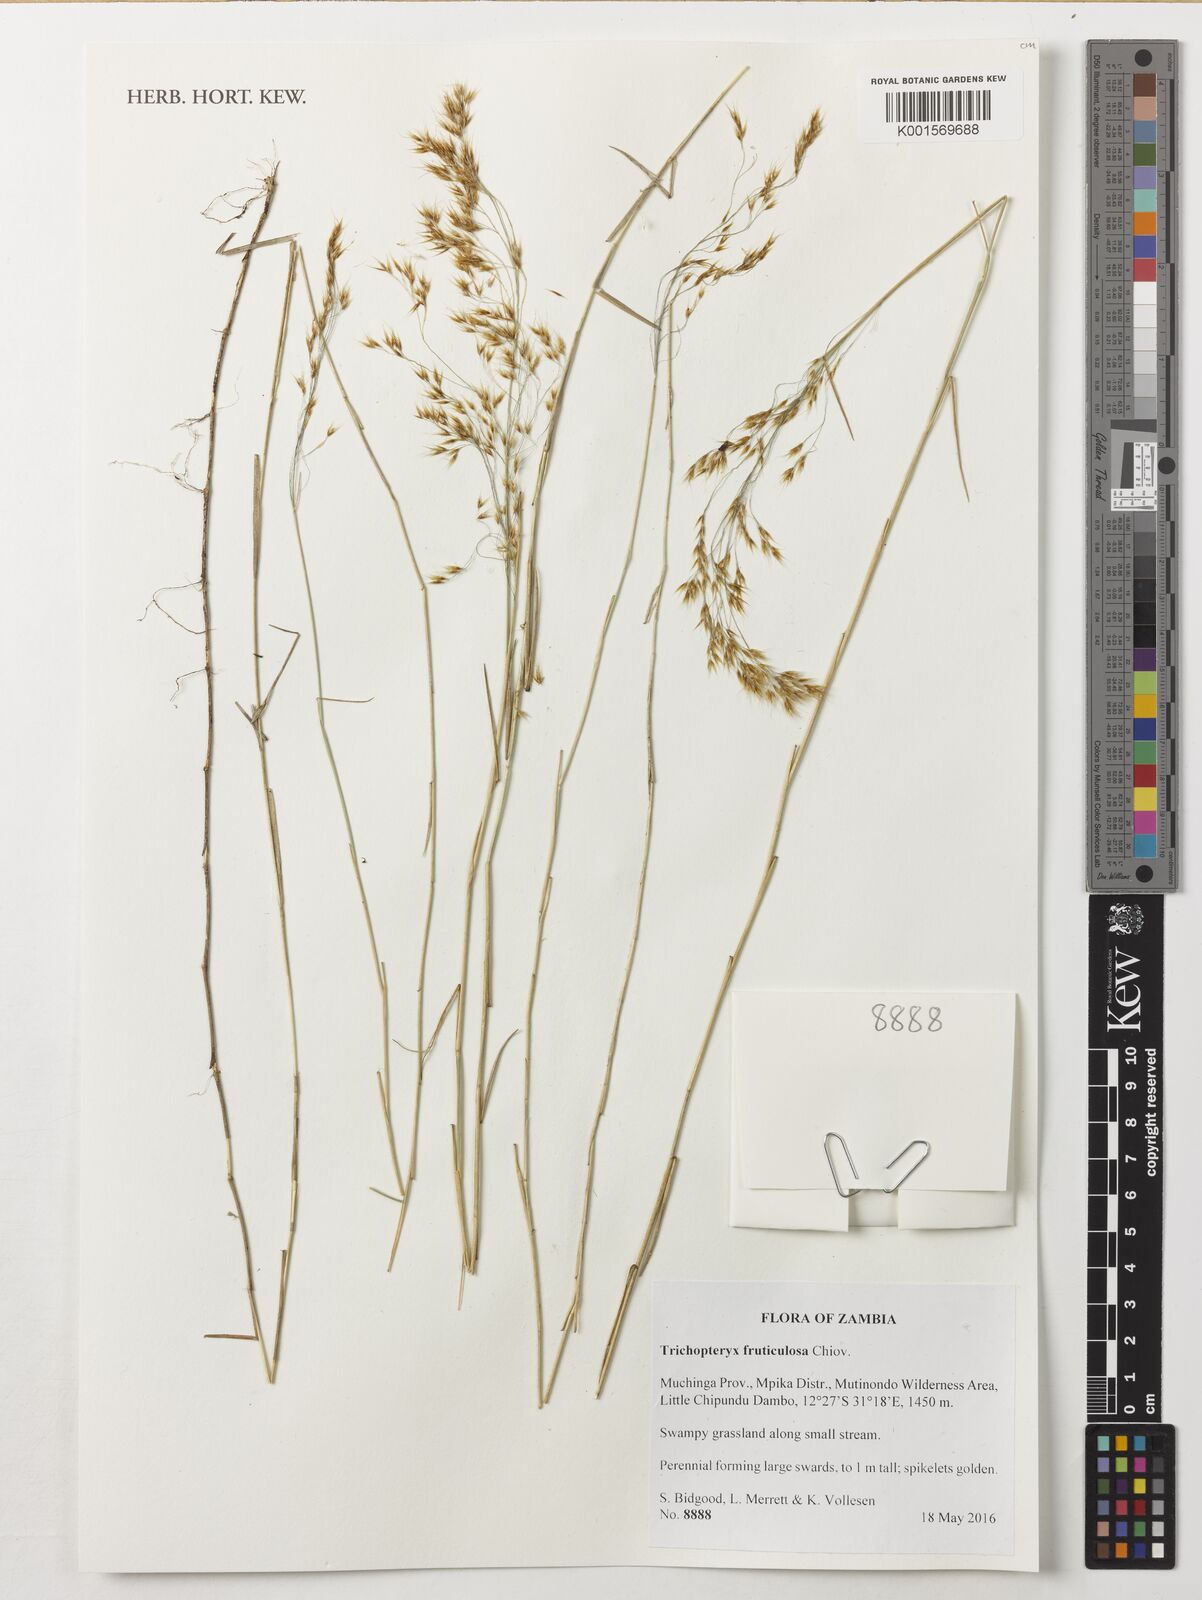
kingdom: Plantae
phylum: Tracheophyta
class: Liliopsida
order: Poales
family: Poaceae
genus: Trichopteryx
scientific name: Trichopteryx fruticulosa
